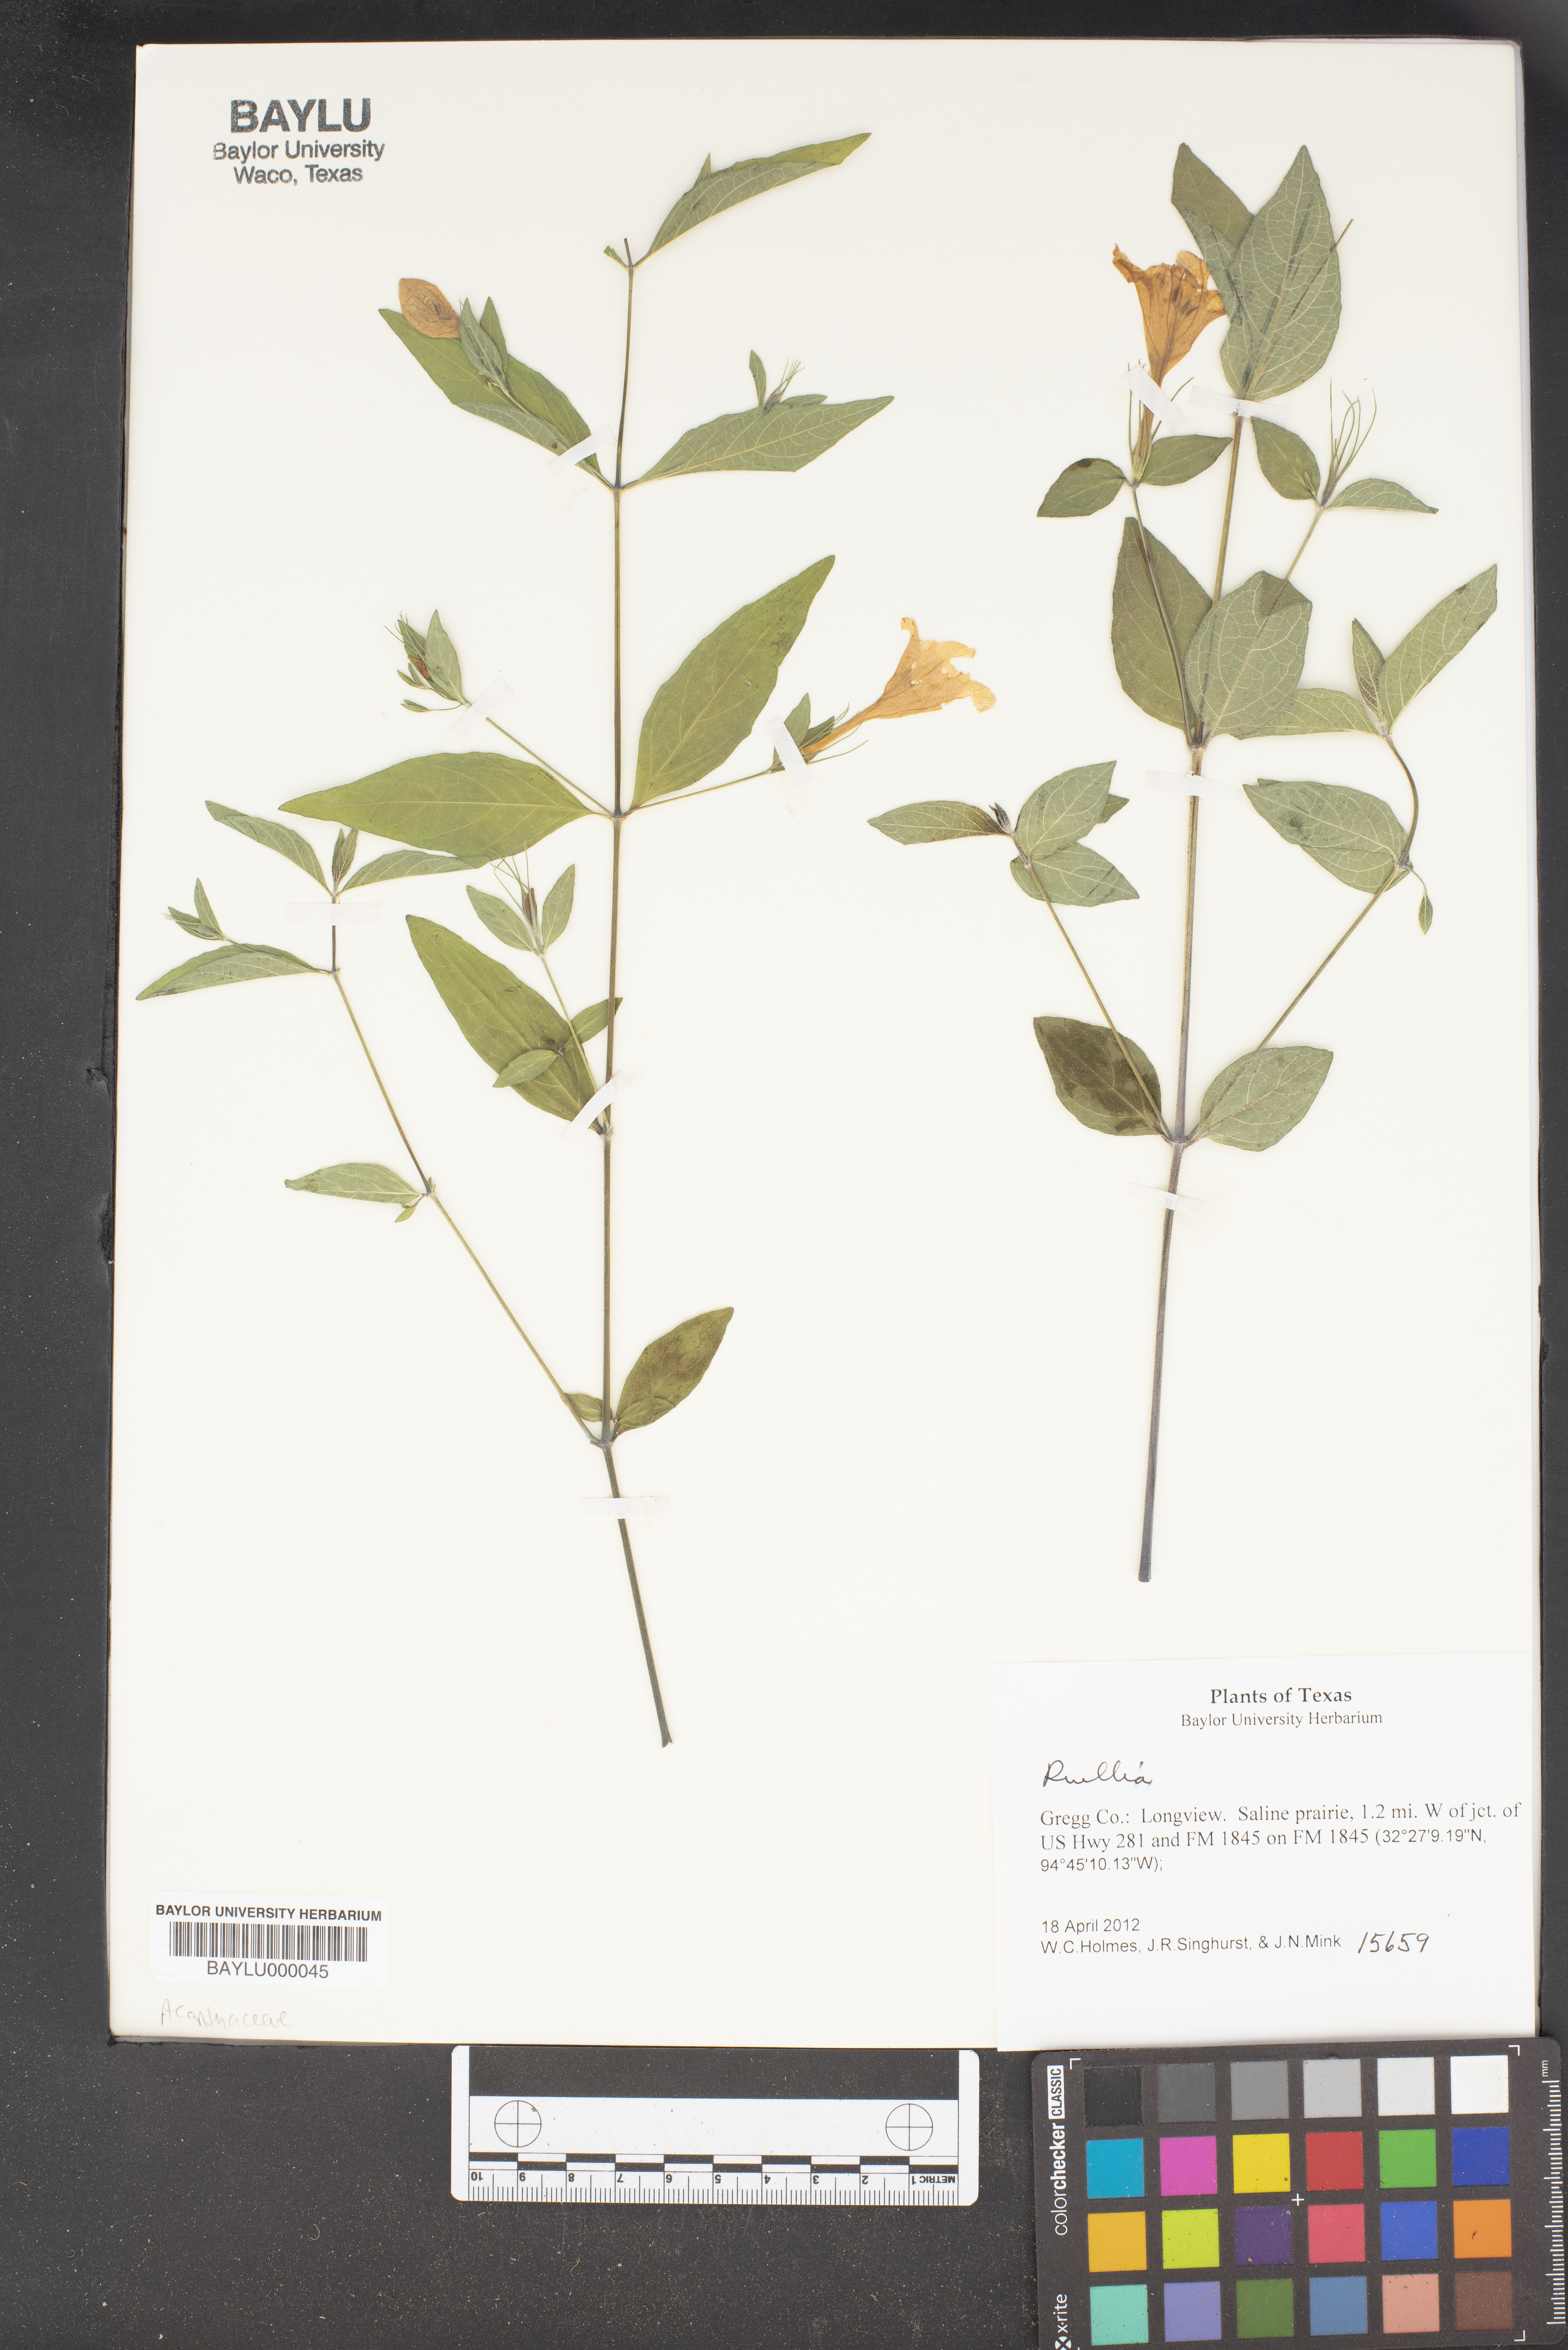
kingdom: Plantae
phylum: Tracheophyta
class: Magnoliopsida
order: Lamiales
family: Acanthaceae
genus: Ruellia
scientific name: Ruellia
